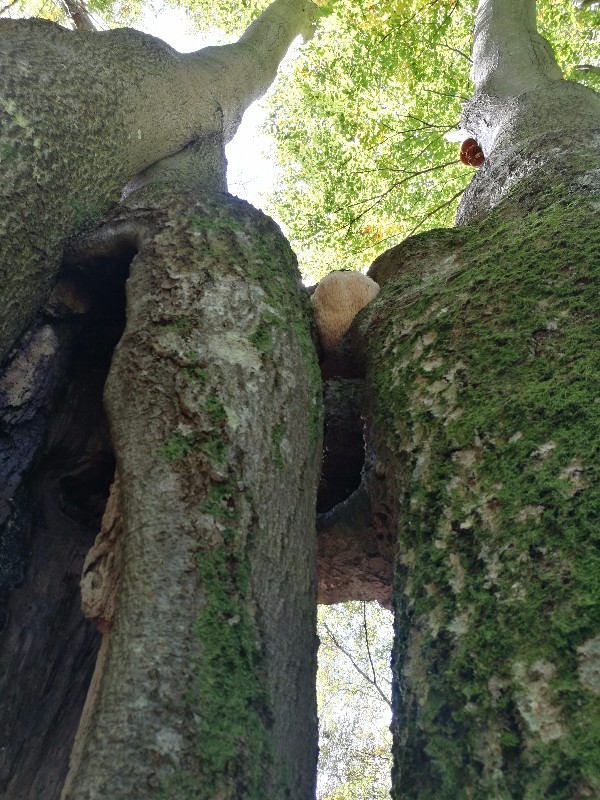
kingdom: Fungi
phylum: Basidiomycota
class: Agaricomycetes
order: Russulales
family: Hericiaceae
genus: Hericium
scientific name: Hericium erinaceus
